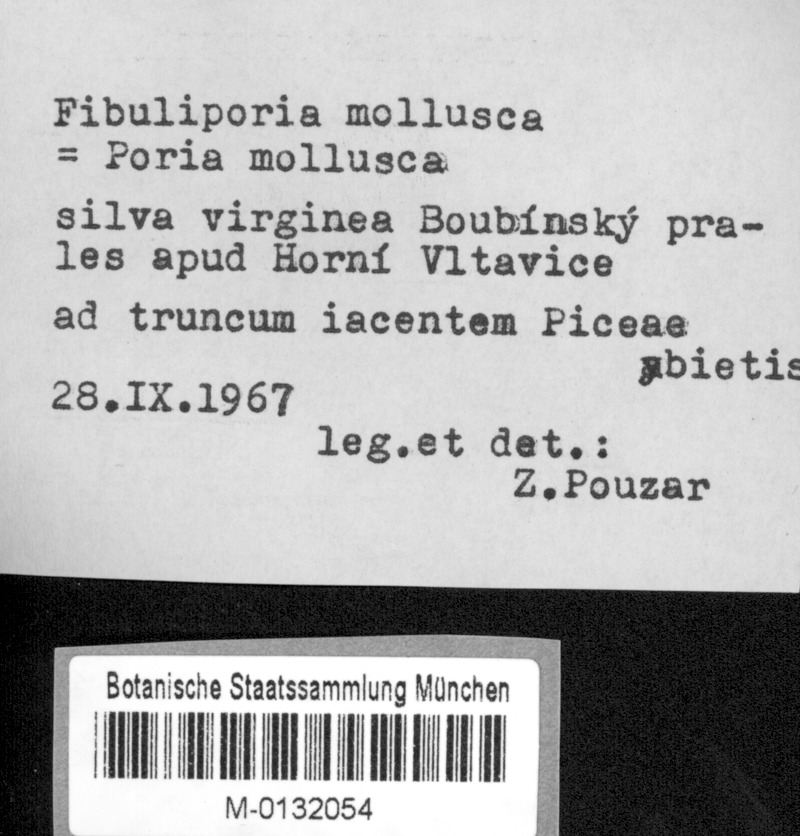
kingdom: Plantae
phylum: Tracheophyta
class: Pinopsida
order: Pinales
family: Pinaceae
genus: Picea
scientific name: Picea abies
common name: Norway spruce
